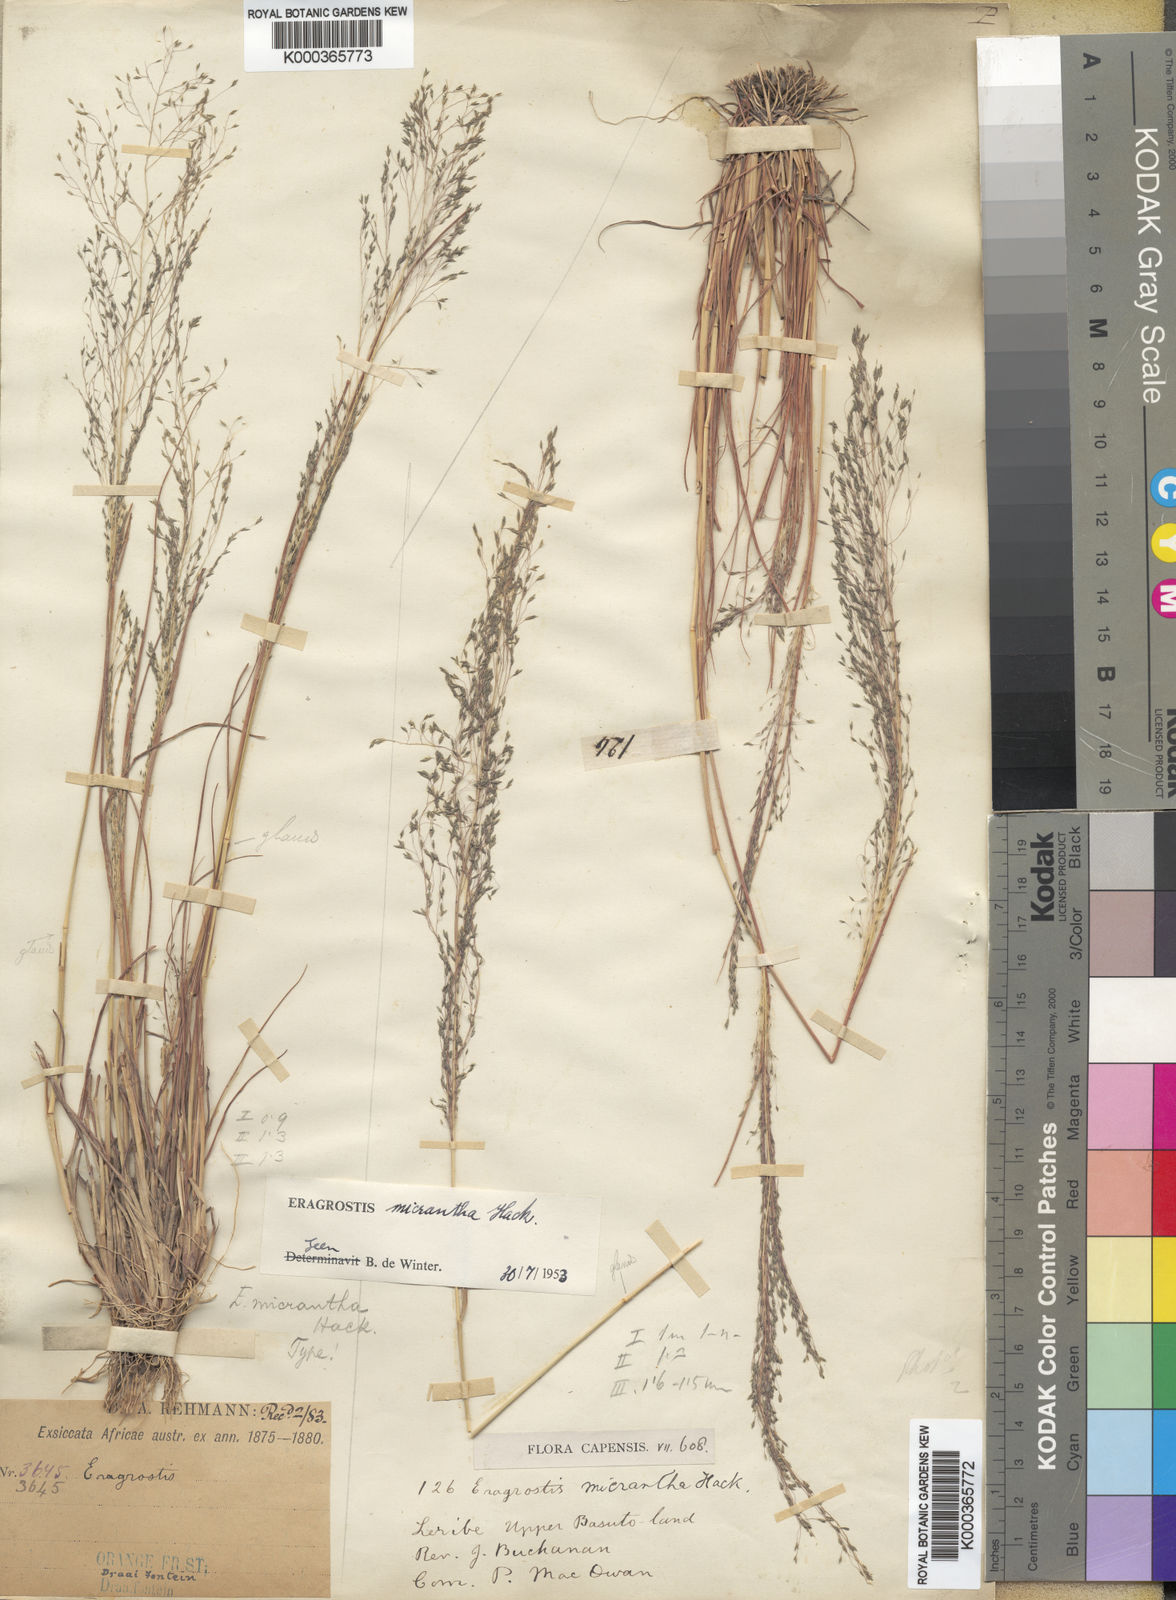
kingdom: Plantae
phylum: Tracheophyta
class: Liliopsida
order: Poales
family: Poaceae
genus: Eragrostis
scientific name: Eragrostis
